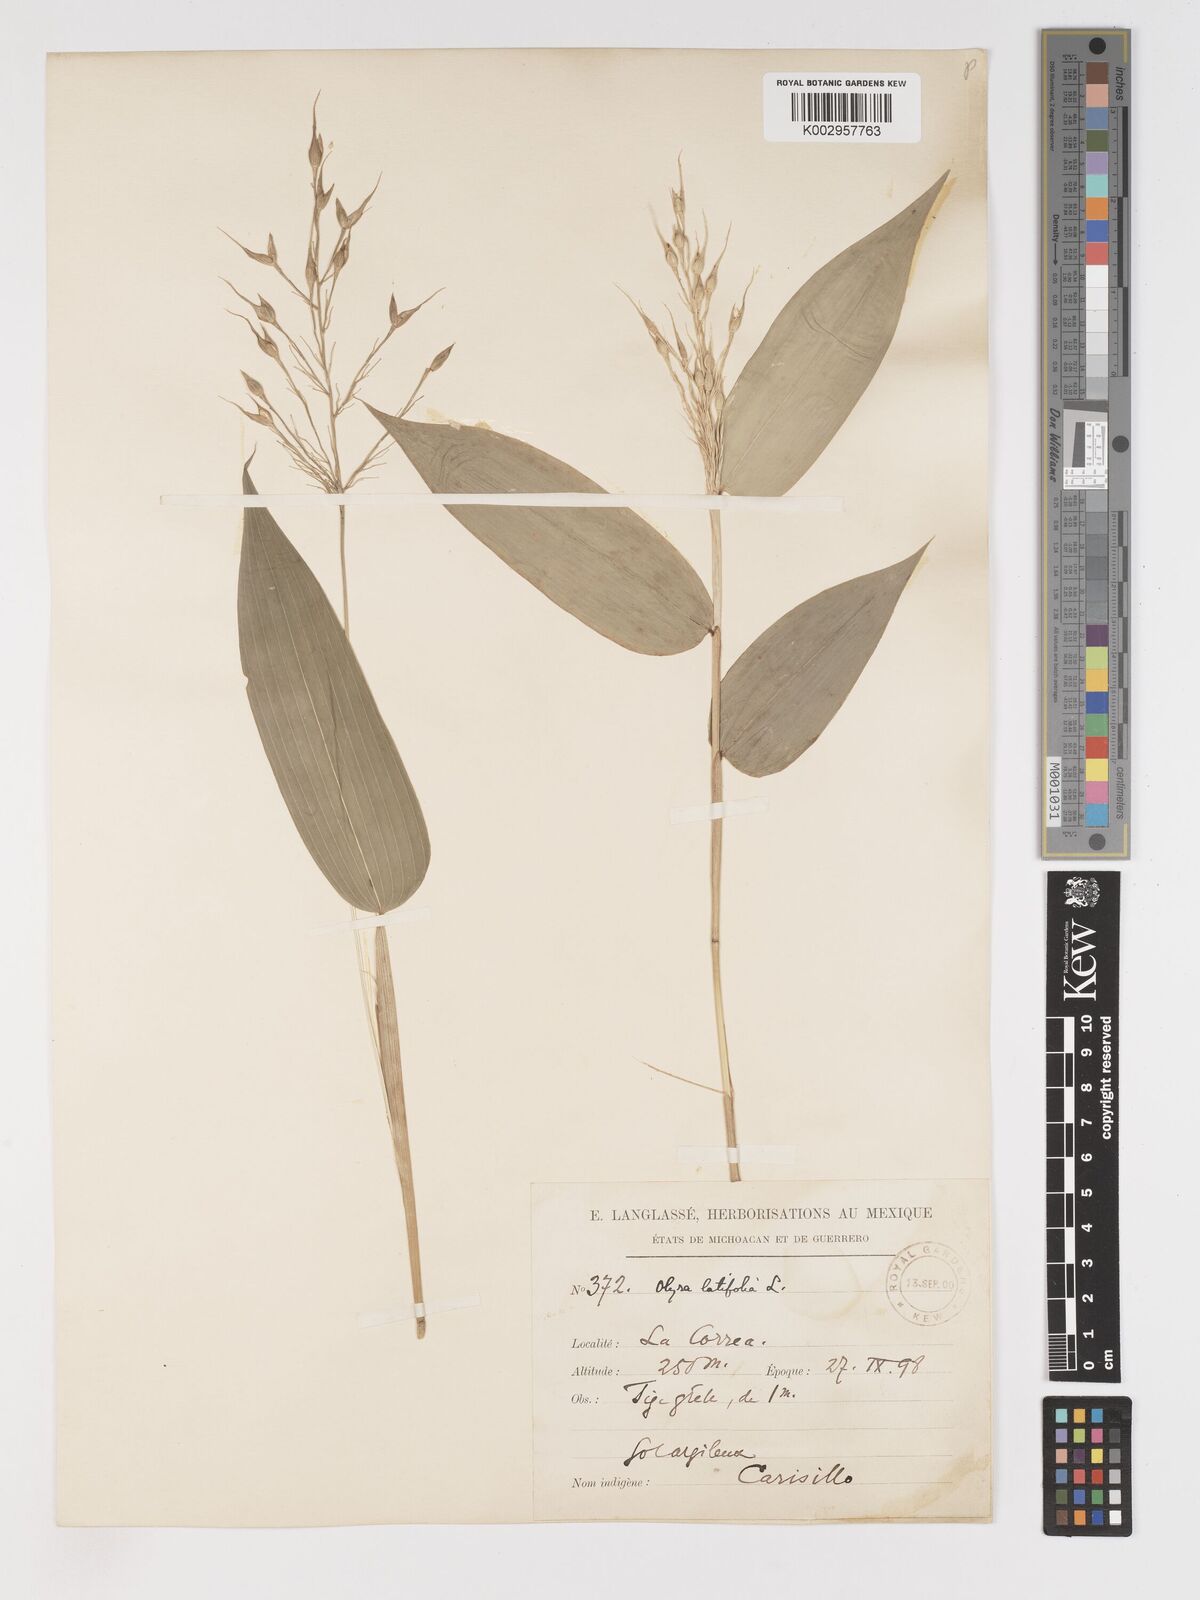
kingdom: Plantae
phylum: Tracheophyta
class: Liliopsida
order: Poales
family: Poaceae
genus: Olyra
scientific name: Olyra latifolia
